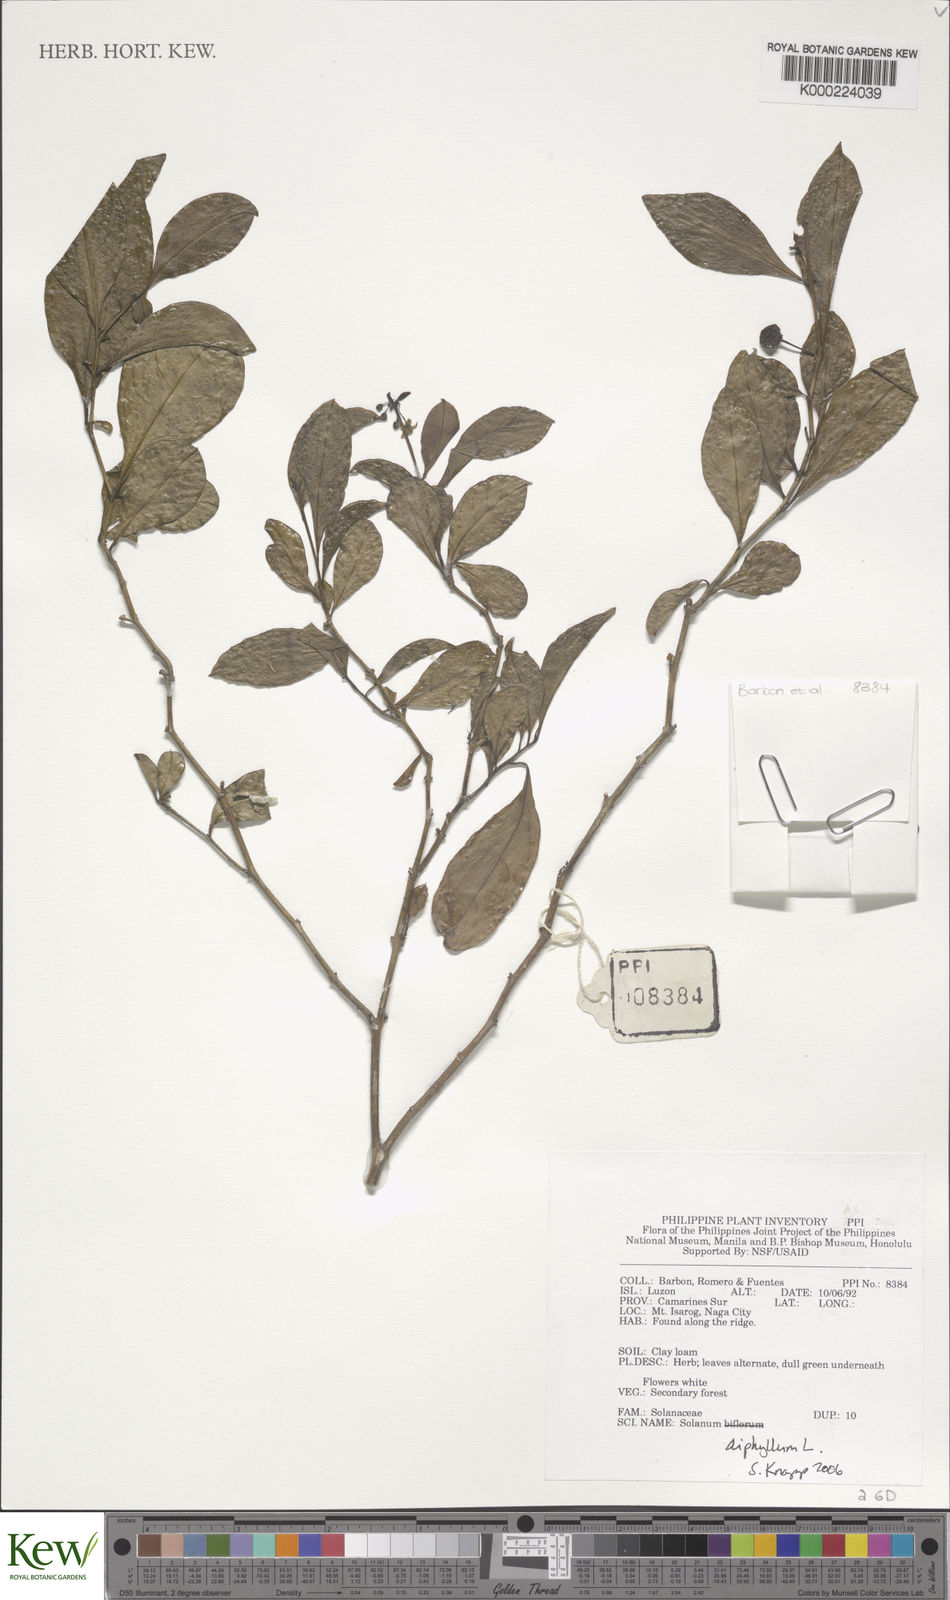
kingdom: Plantae
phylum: Tracheophyta
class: Magnoliopsida
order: Solanales
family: Solanaceae
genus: Solanum
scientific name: Solanum diphyllum
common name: Twoleaf nightshade
